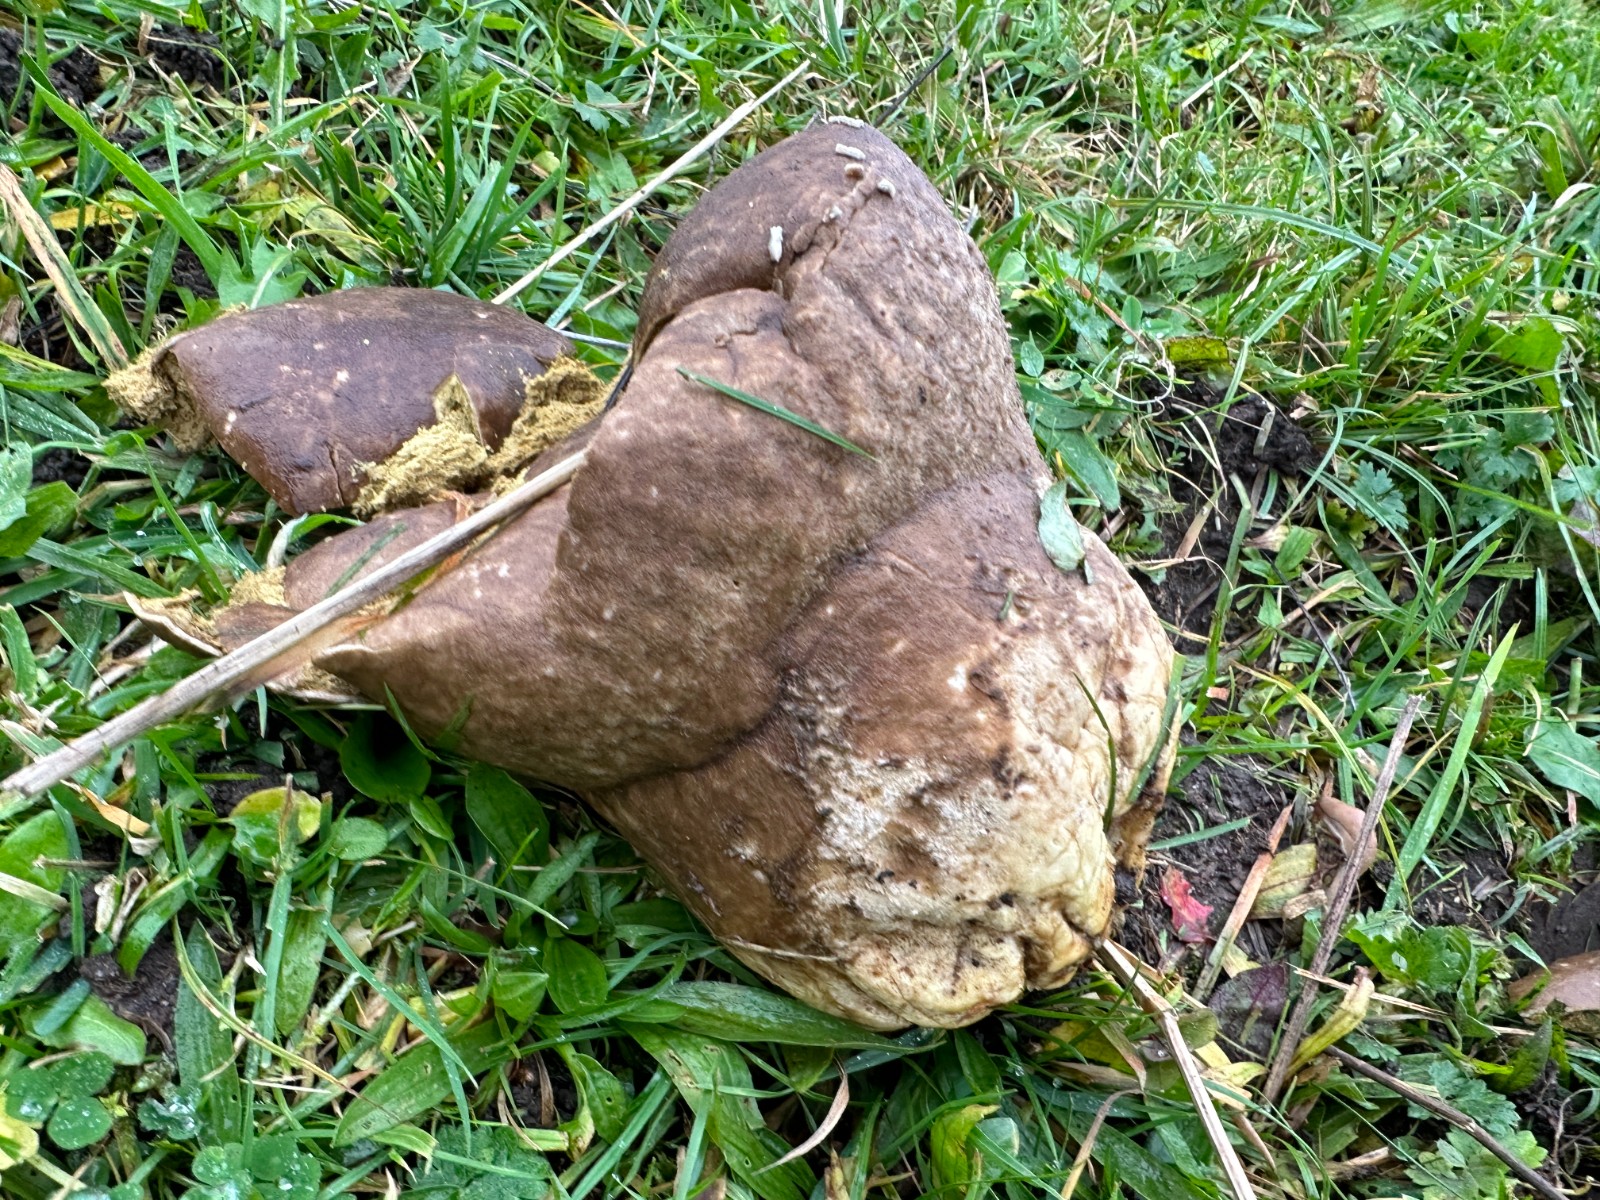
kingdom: Fungi
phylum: Basidiomycota
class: Agaricomycetes
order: Agaricales
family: Lycoperdaceae
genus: Bovistella
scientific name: Bovistella utriformis
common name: skællet støvbold
